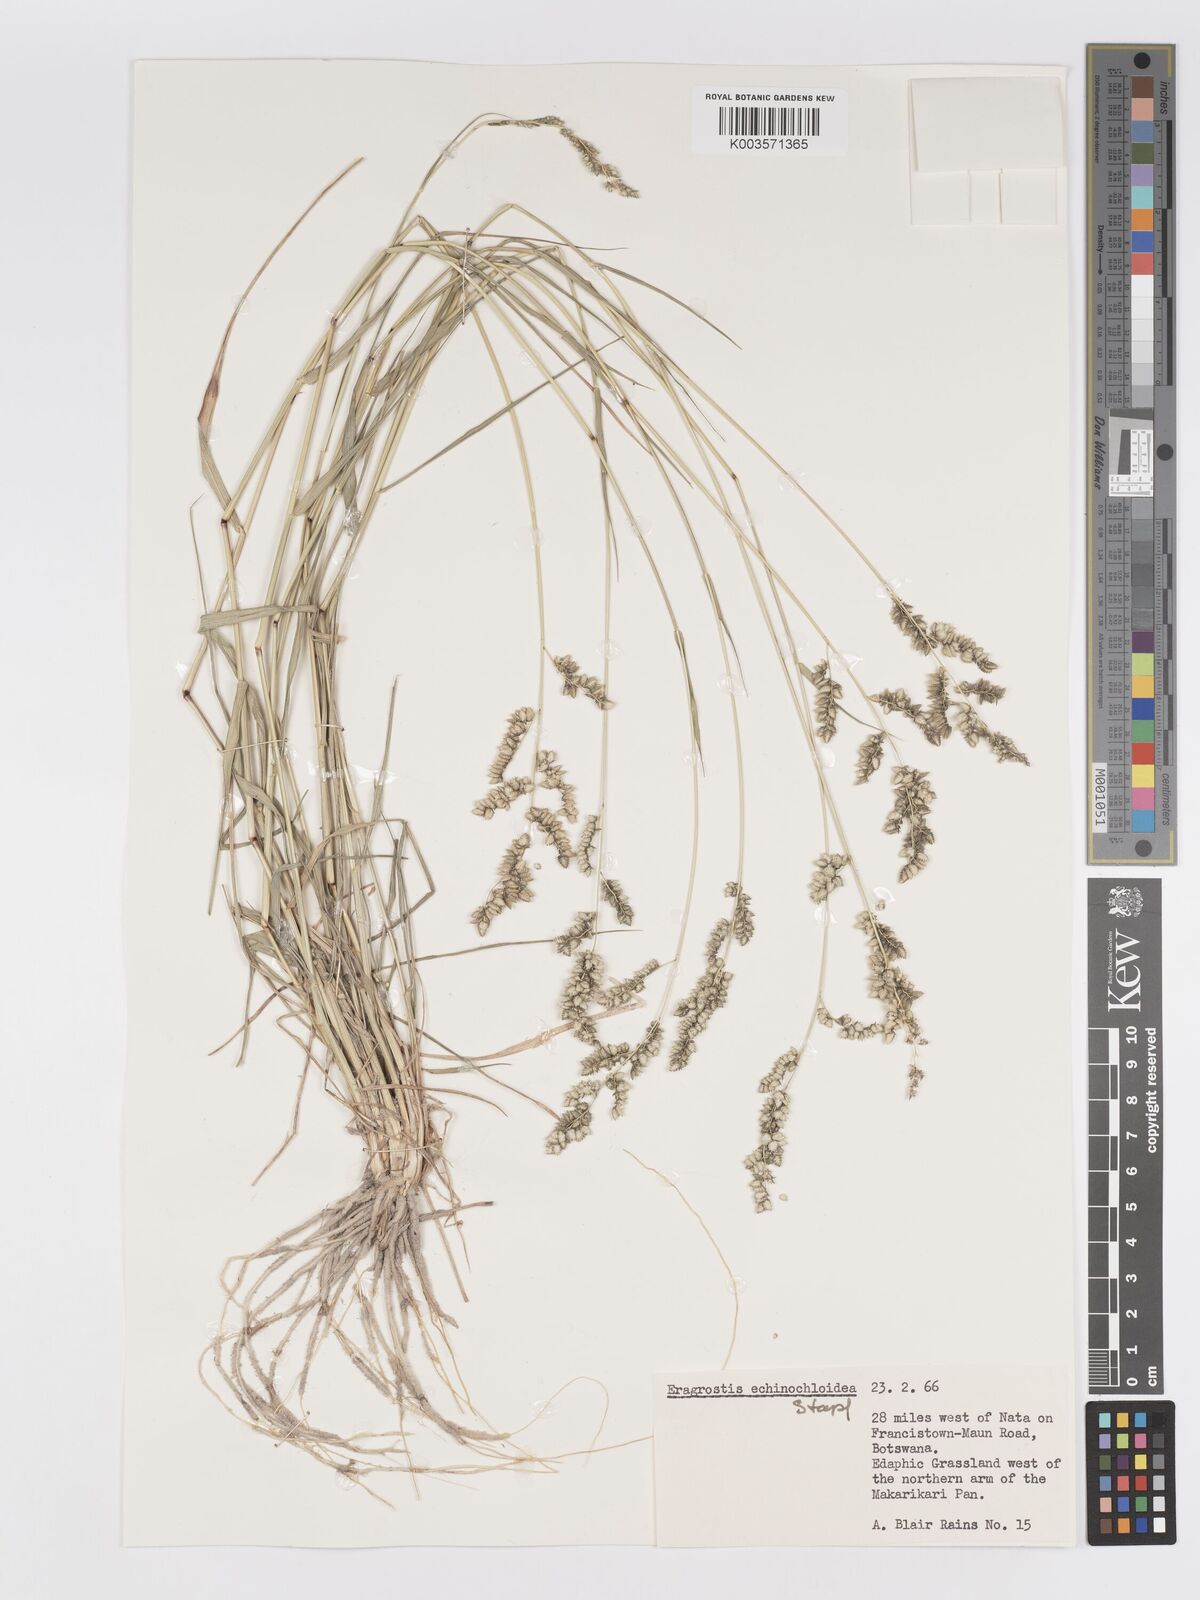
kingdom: Plantae
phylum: Tracheophyta
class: Liliopsida
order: Poales
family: Poaceae
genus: Eragrostis
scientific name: Eragrostis echinochloidea
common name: African lovegrass
